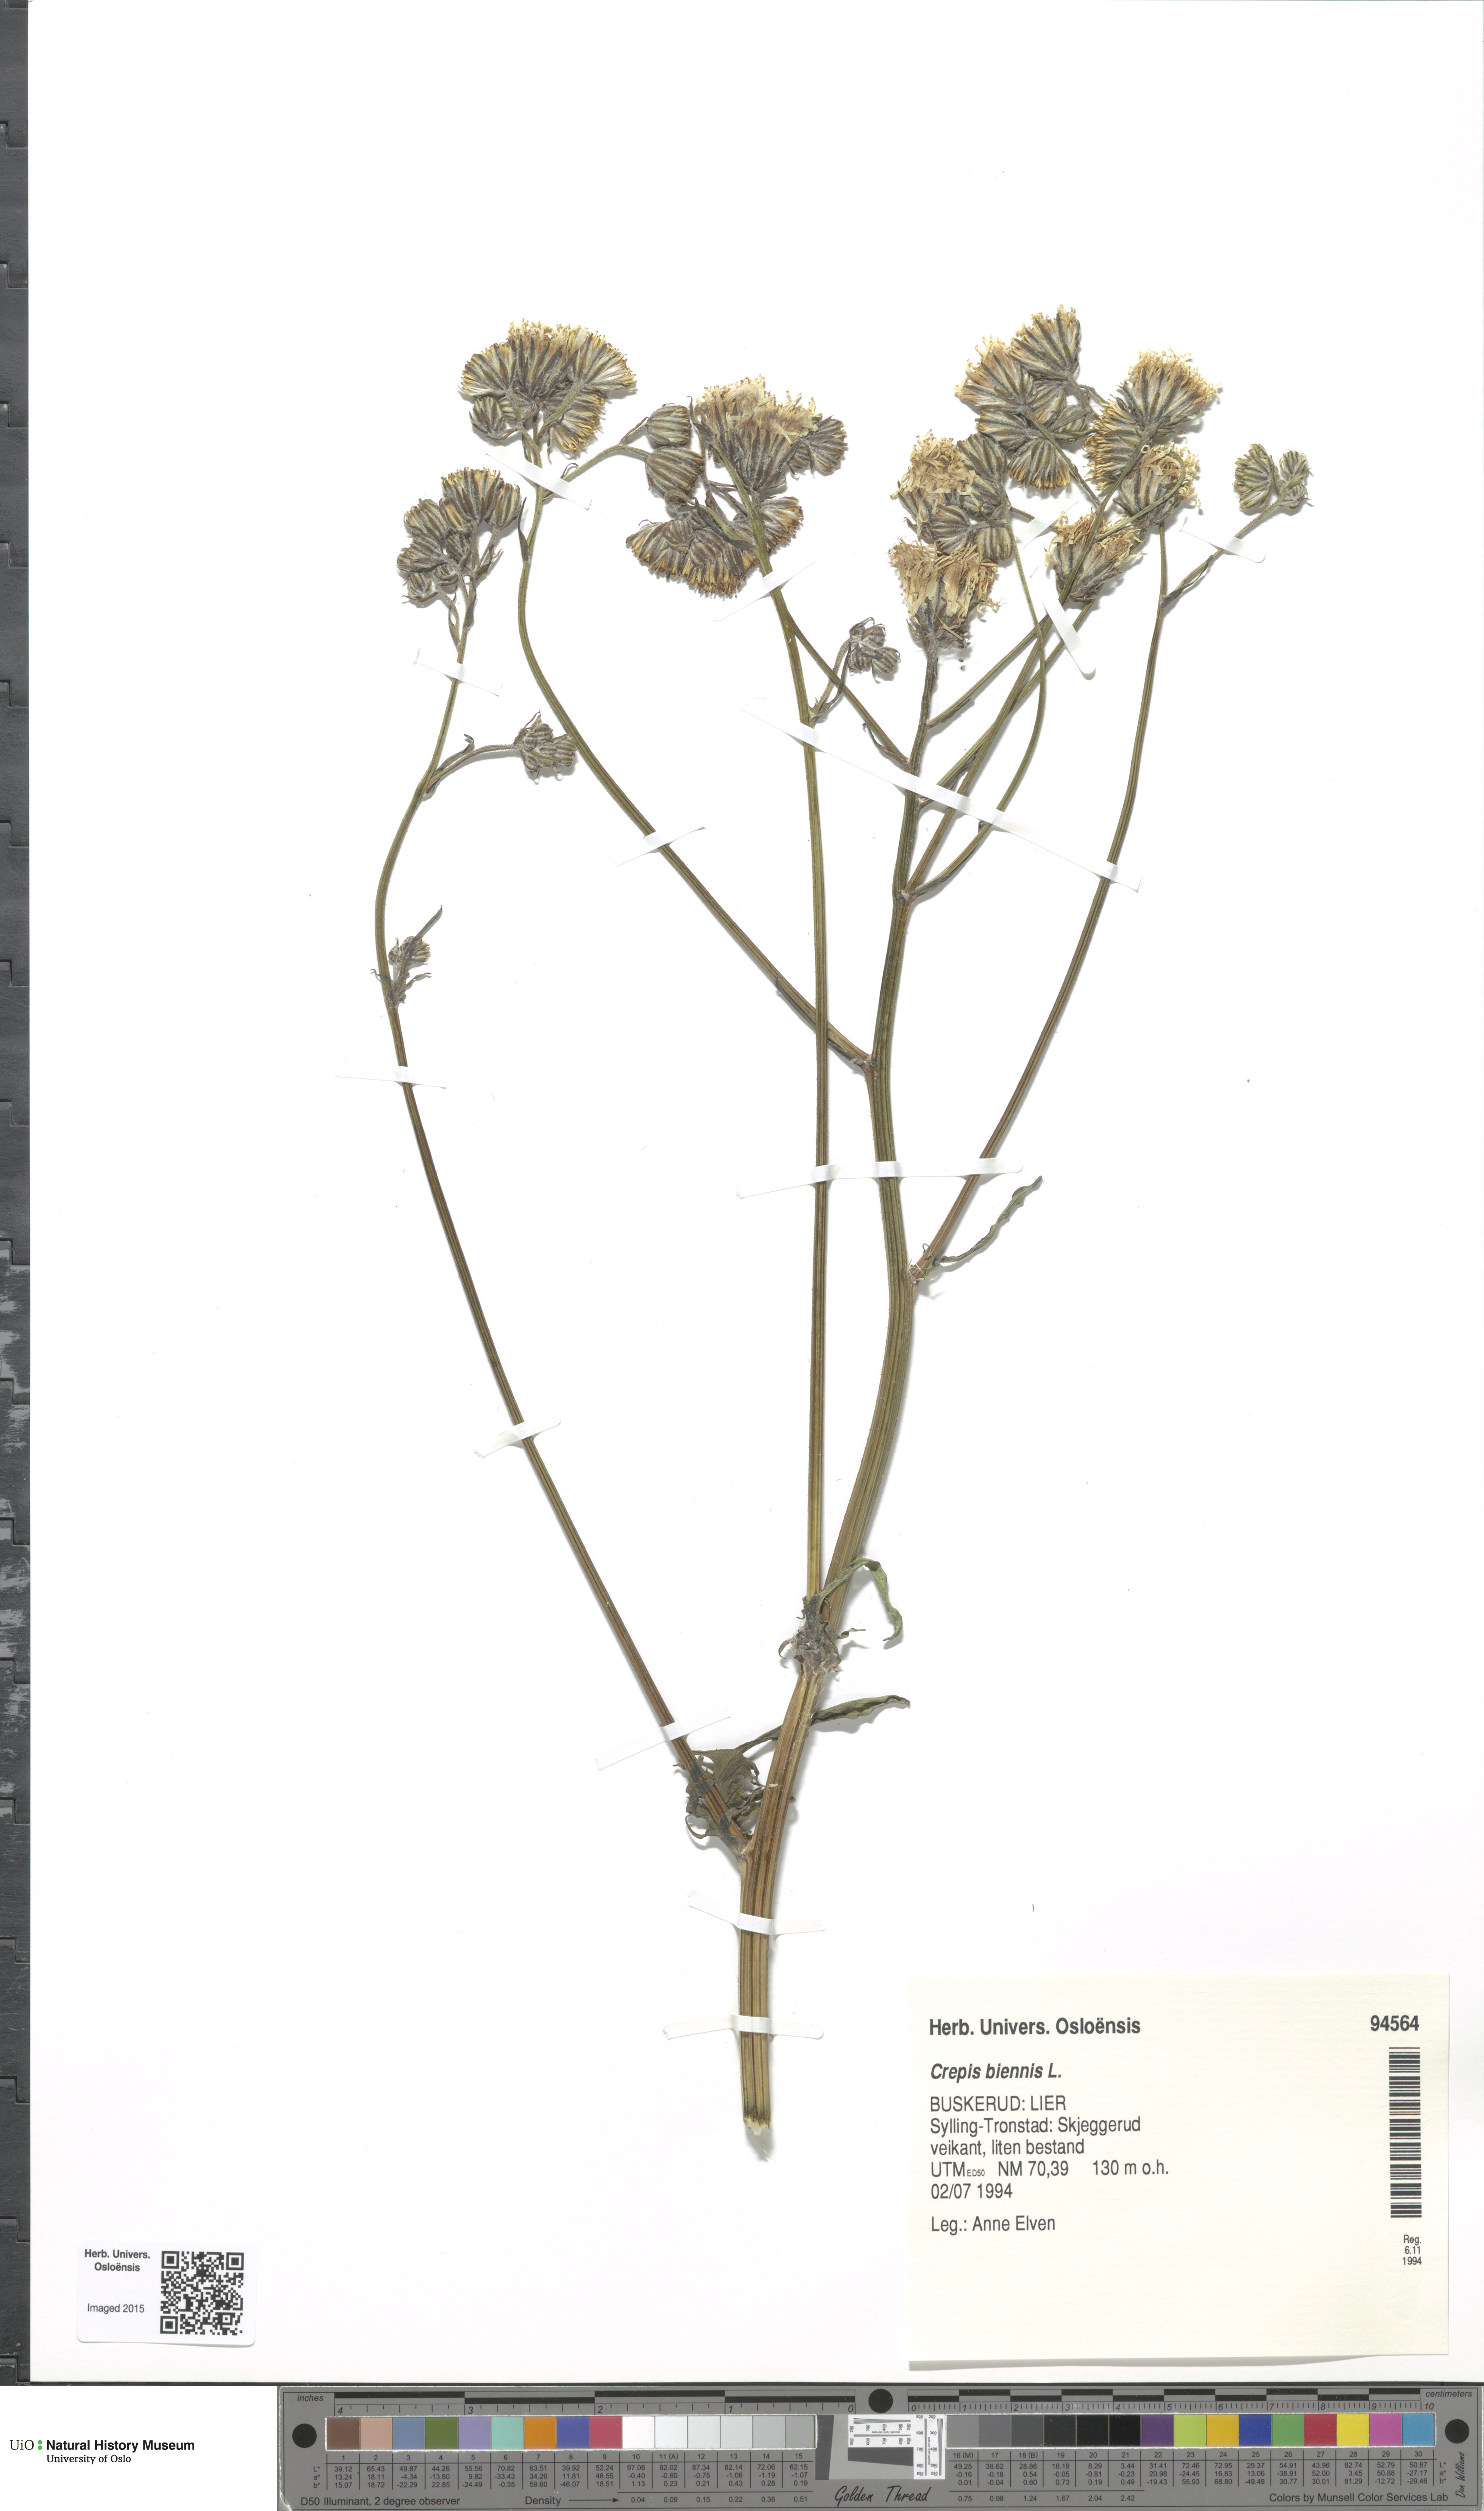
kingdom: Plantae
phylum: Tracheophyta
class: Magnoliopsida
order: Asterales
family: Asteraceae
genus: Crepis
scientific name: Crepis biennis
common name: Rough hawk's-beard
